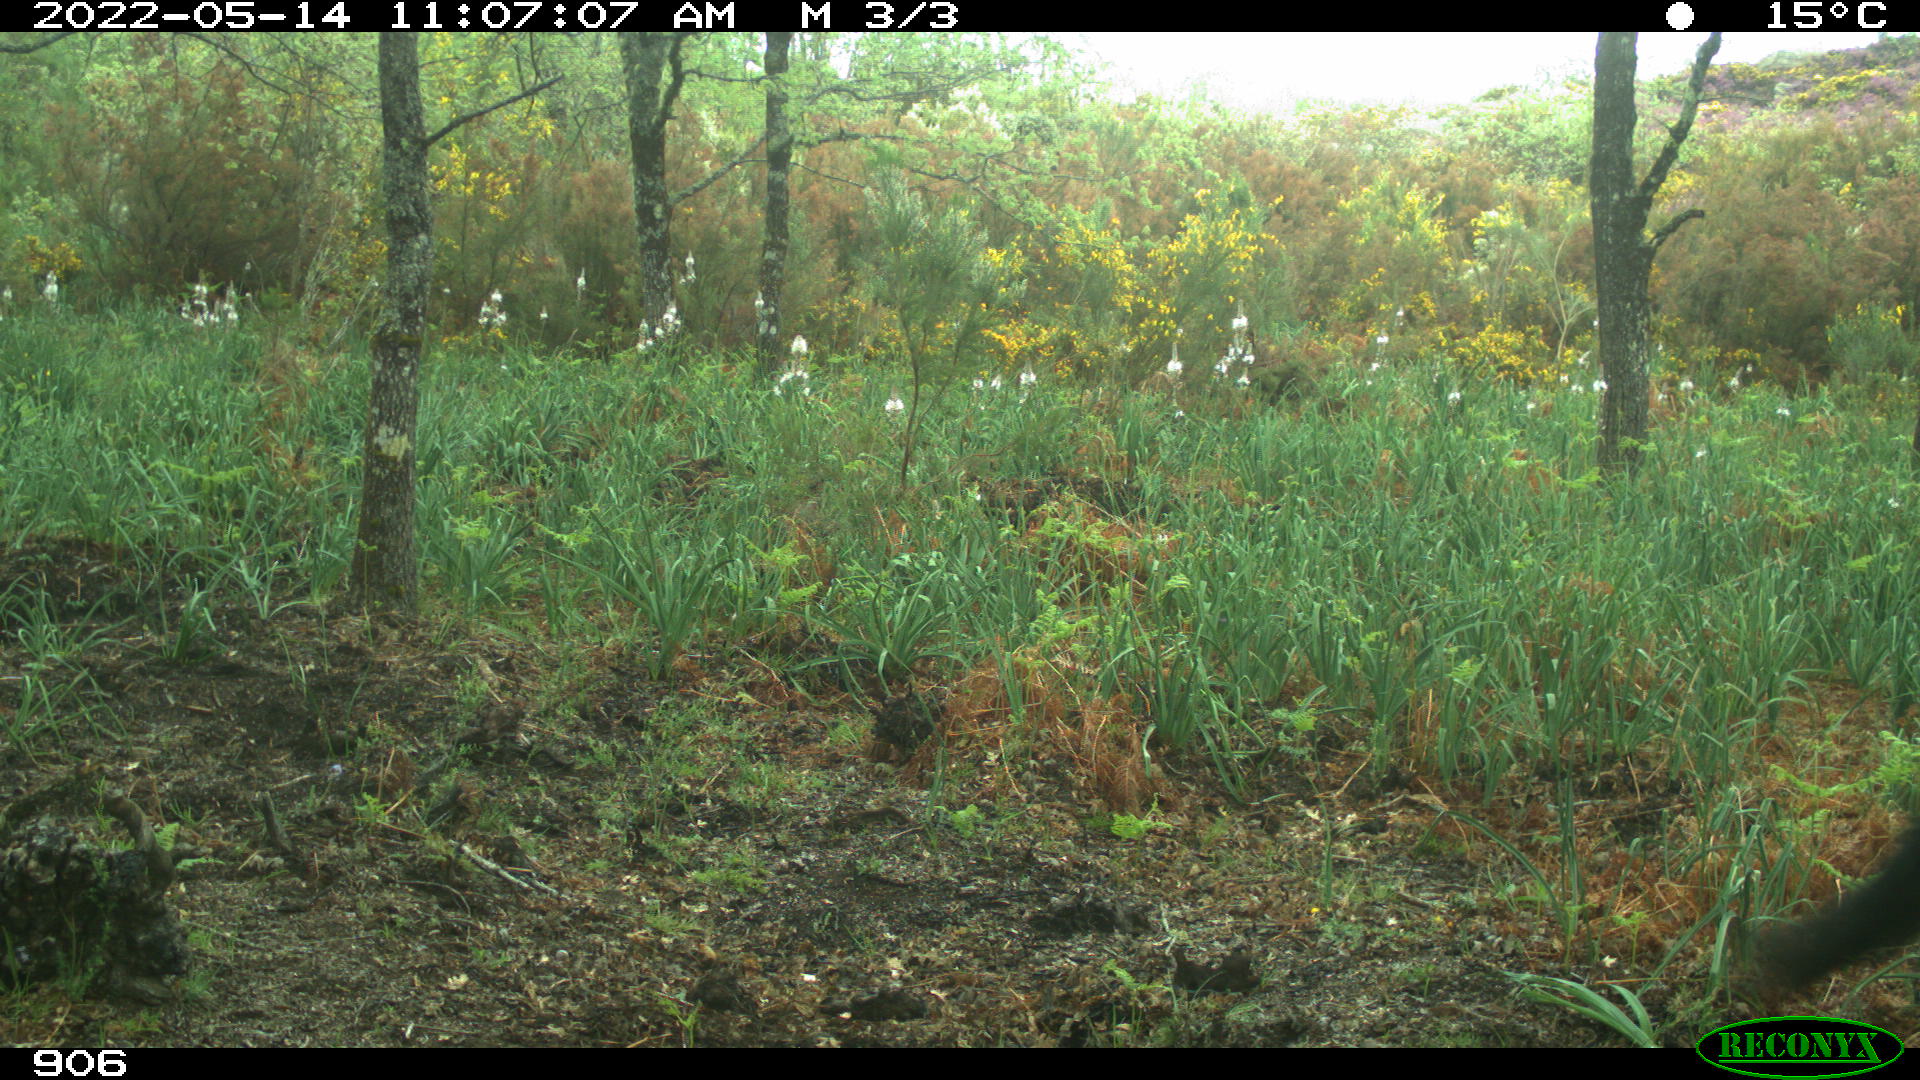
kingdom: Animalia
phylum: Chordata
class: Mammalia
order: Perissodactyla
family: Equidae
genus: Equus
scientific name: Equus caballus
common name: Horse
